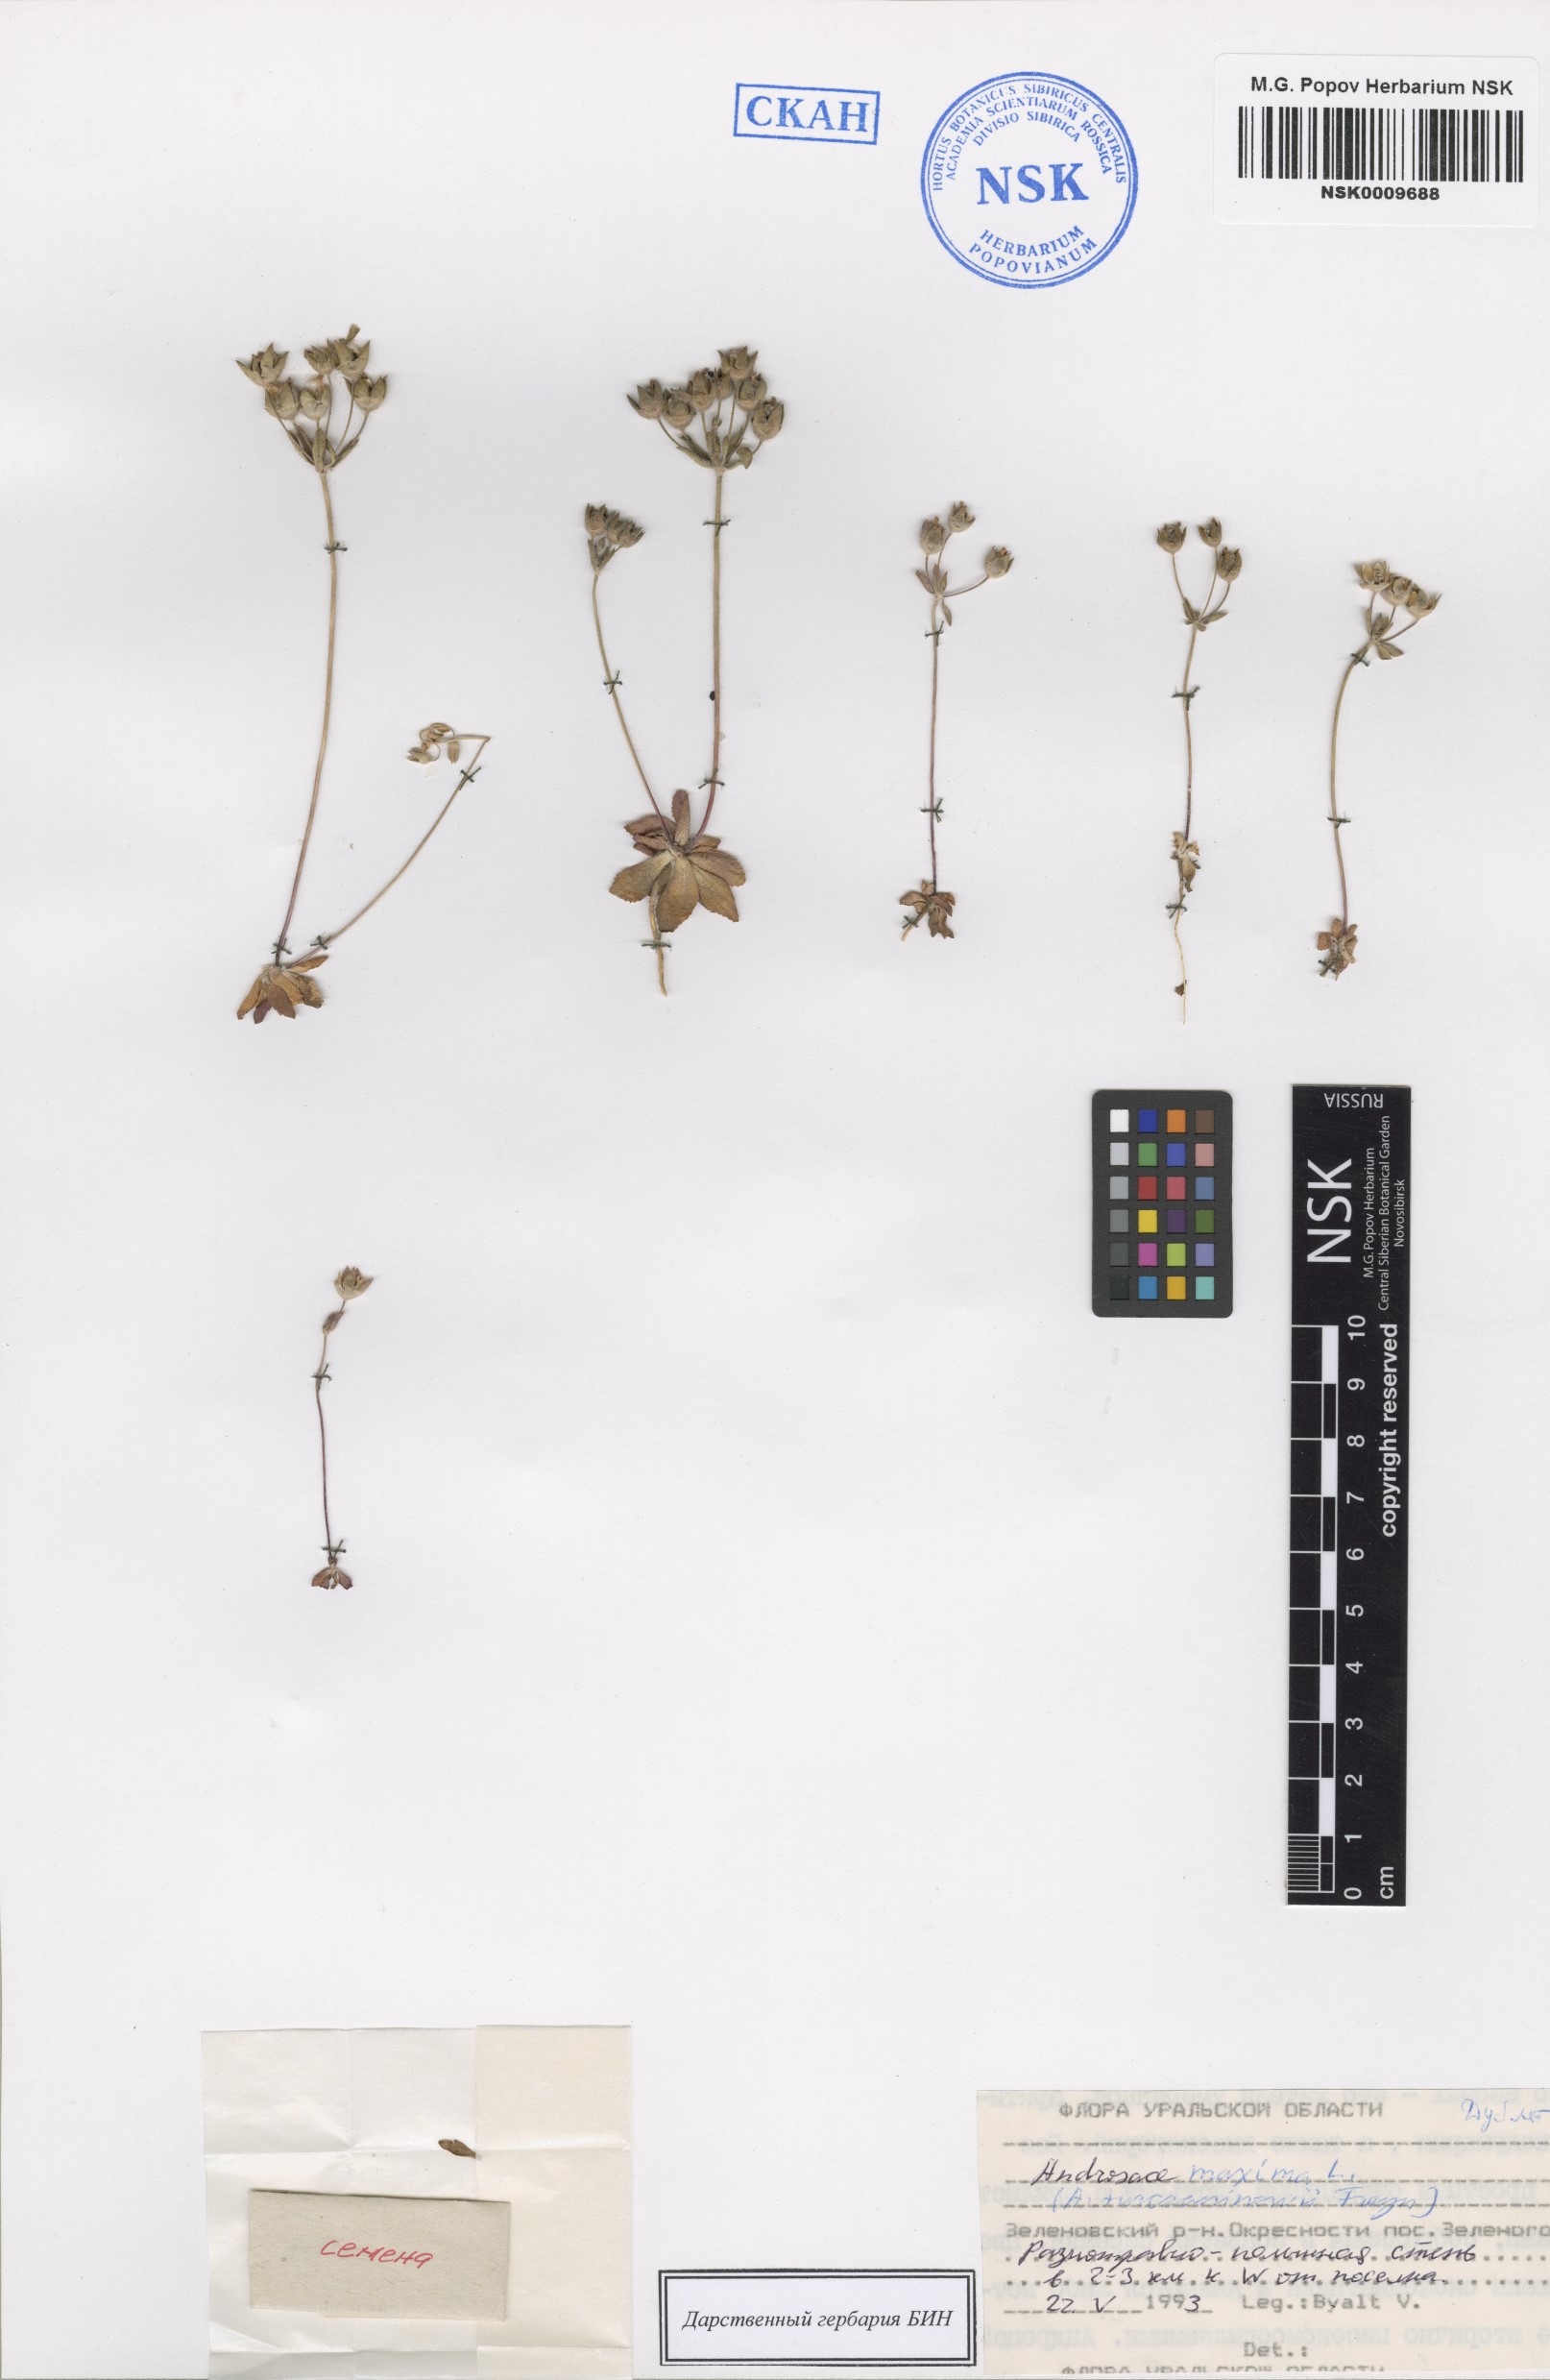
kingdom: Plantae
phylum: Tracheophyta
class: Magnoliopsida
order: Ericales
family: Primulaceae
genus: Androsace
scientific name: Androsace maxima
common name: Annual androsace
